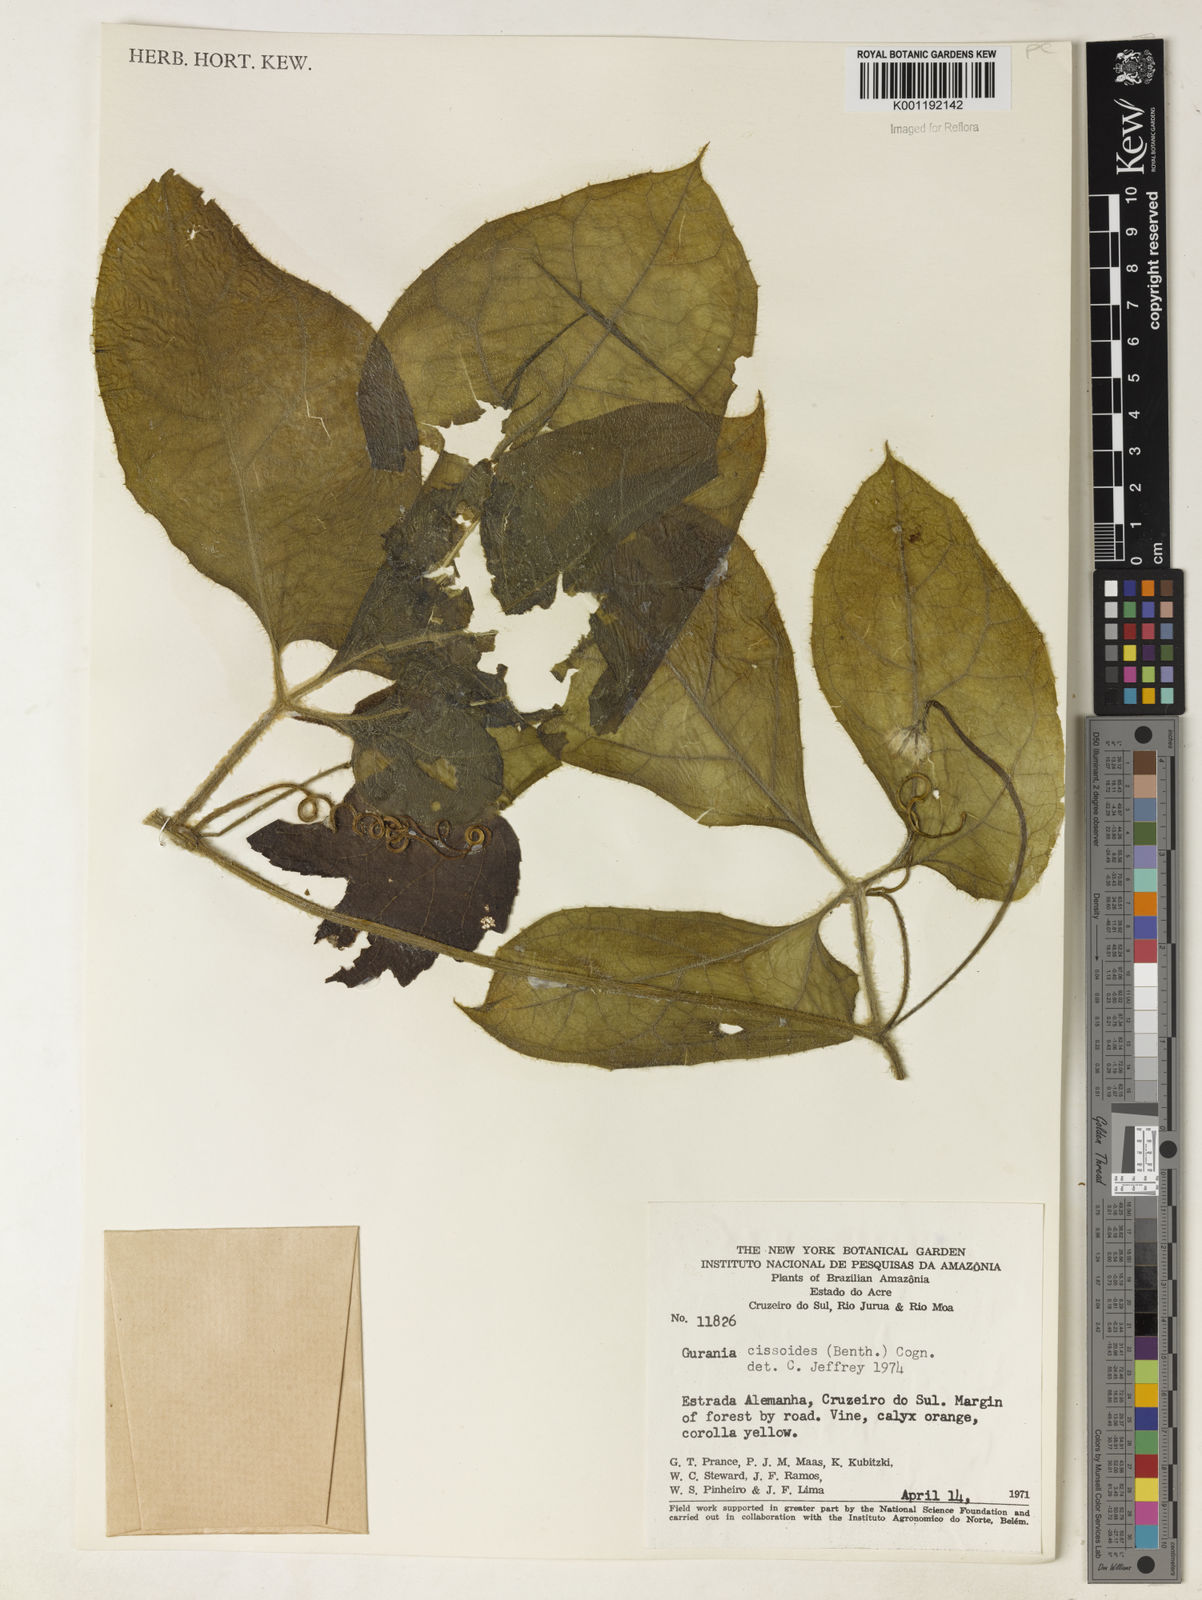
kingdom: Plantae
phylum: Tracheophyta
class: Magnoliopsida
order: Cucurbitales
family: Cucurbitaceae
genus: Gurania
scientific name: Gurania bignoniacea
